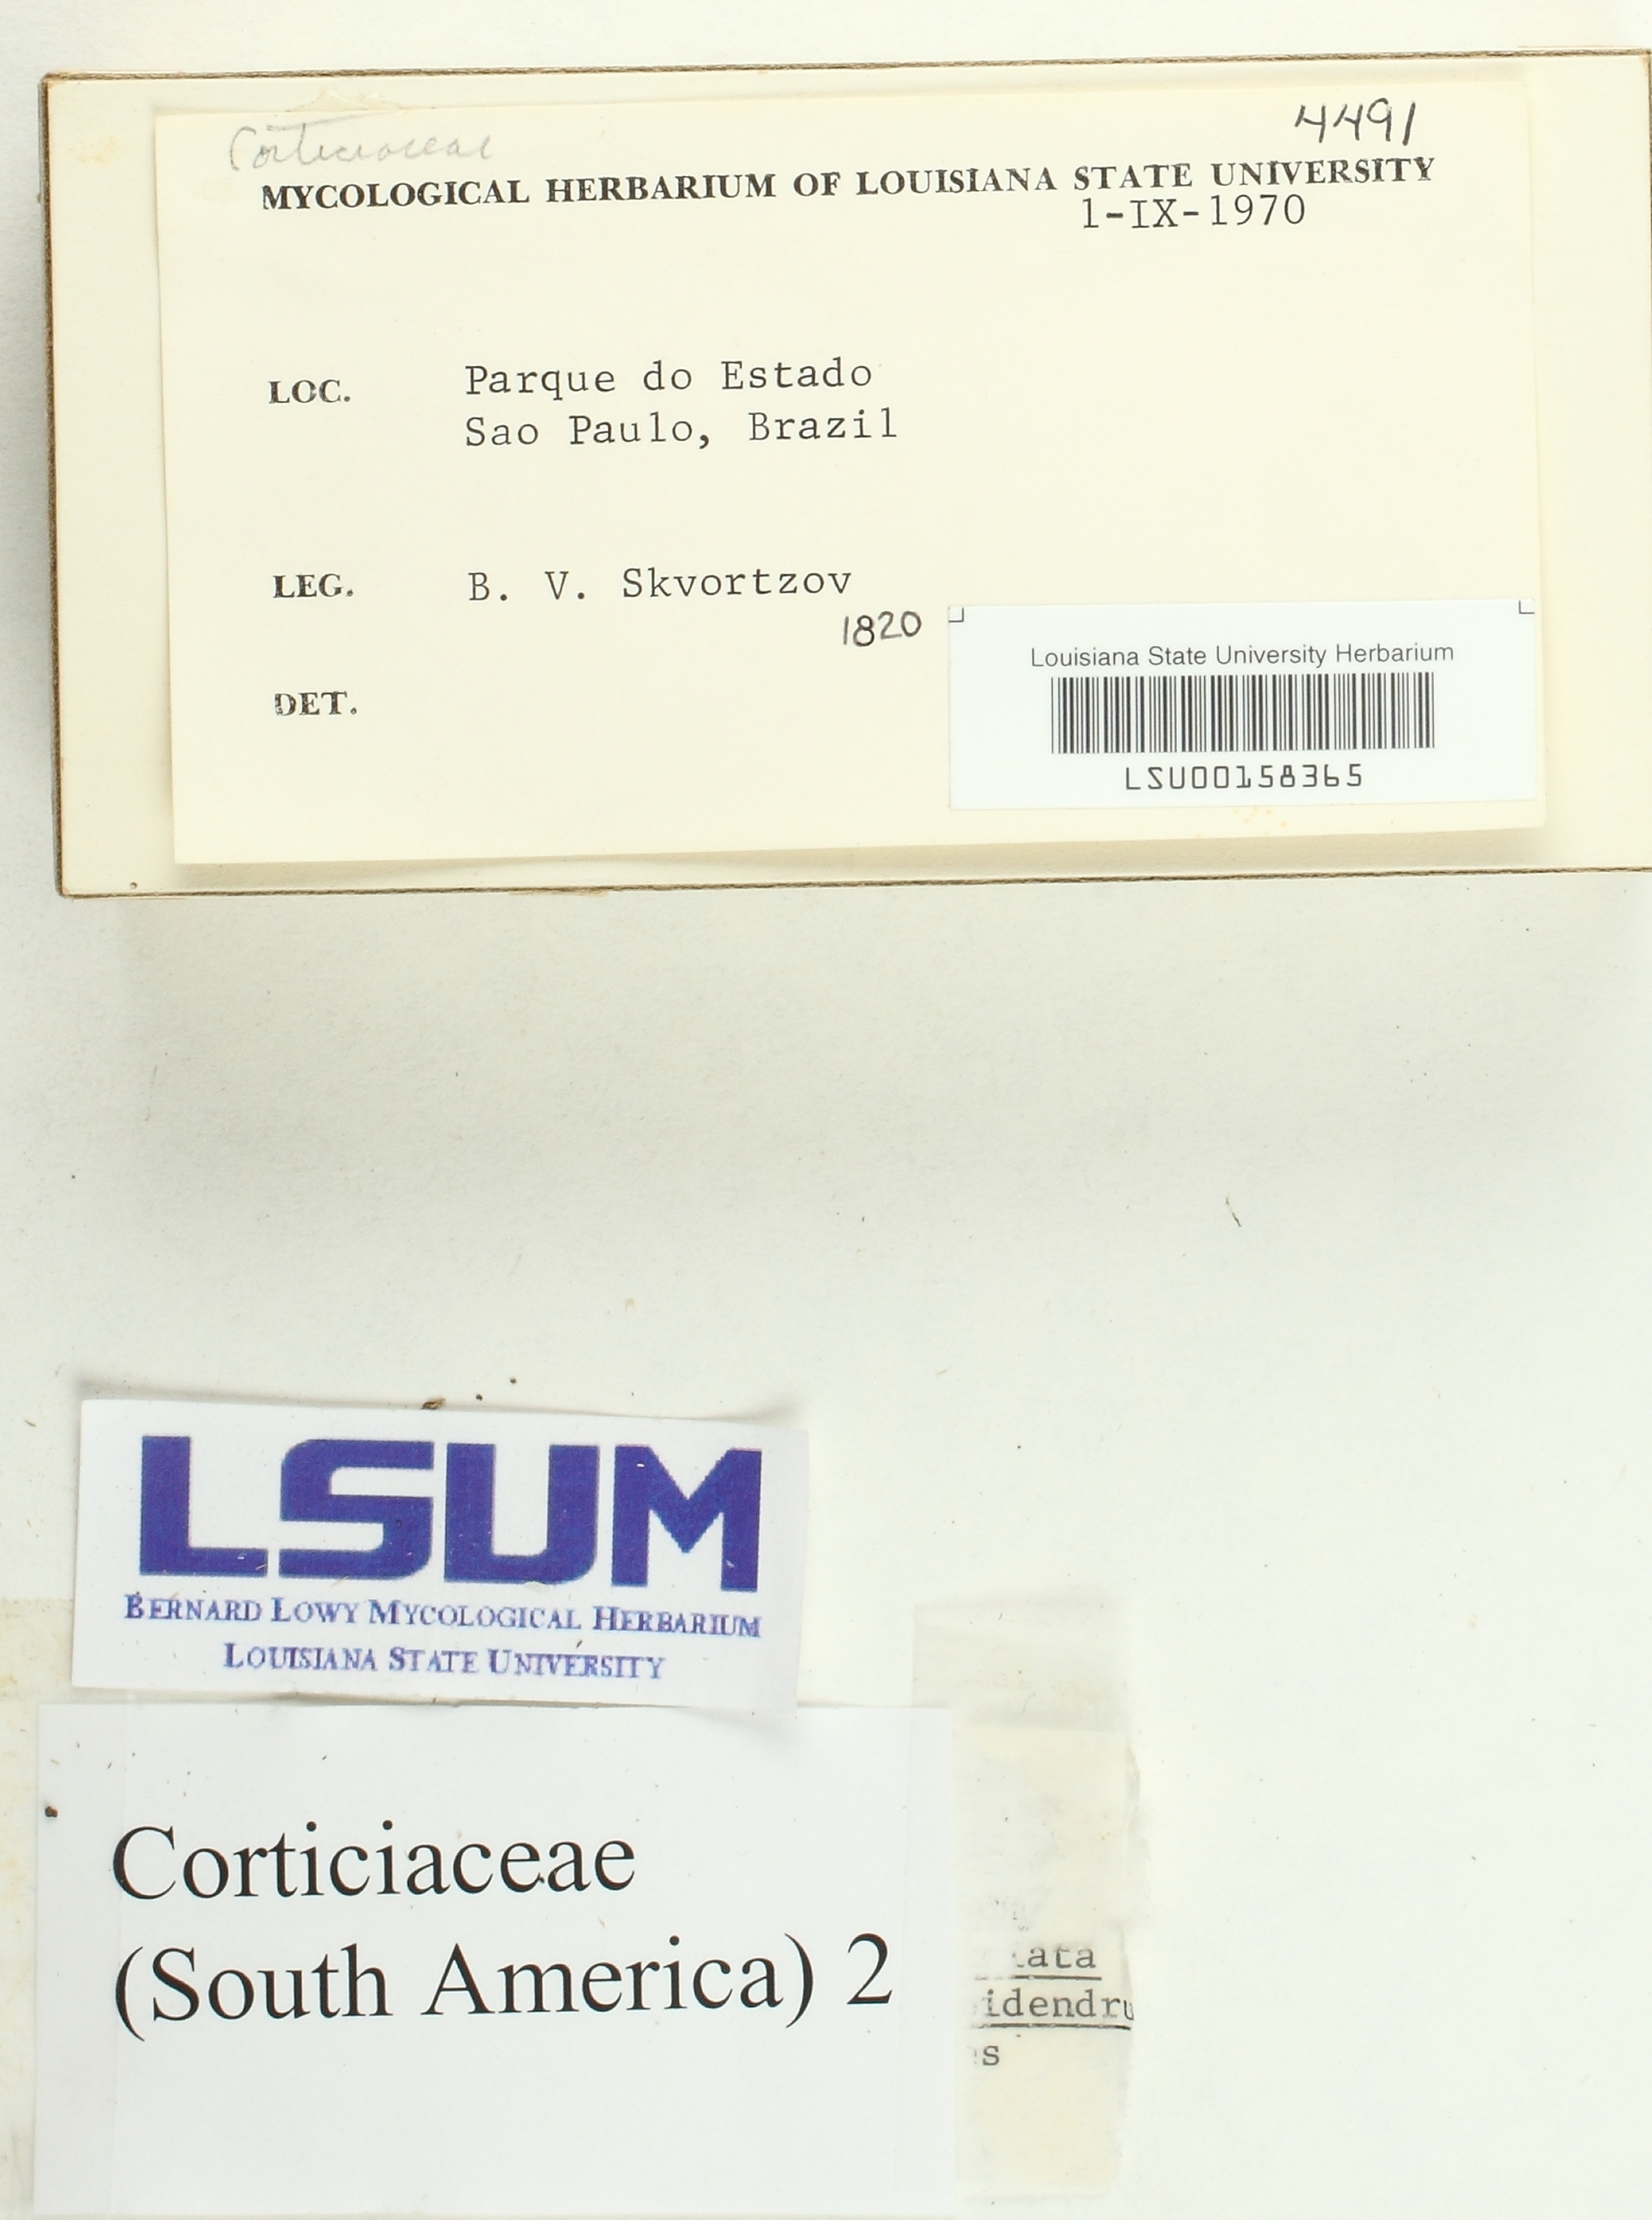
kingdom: Fungi
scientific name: Fungi
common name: Fungi
